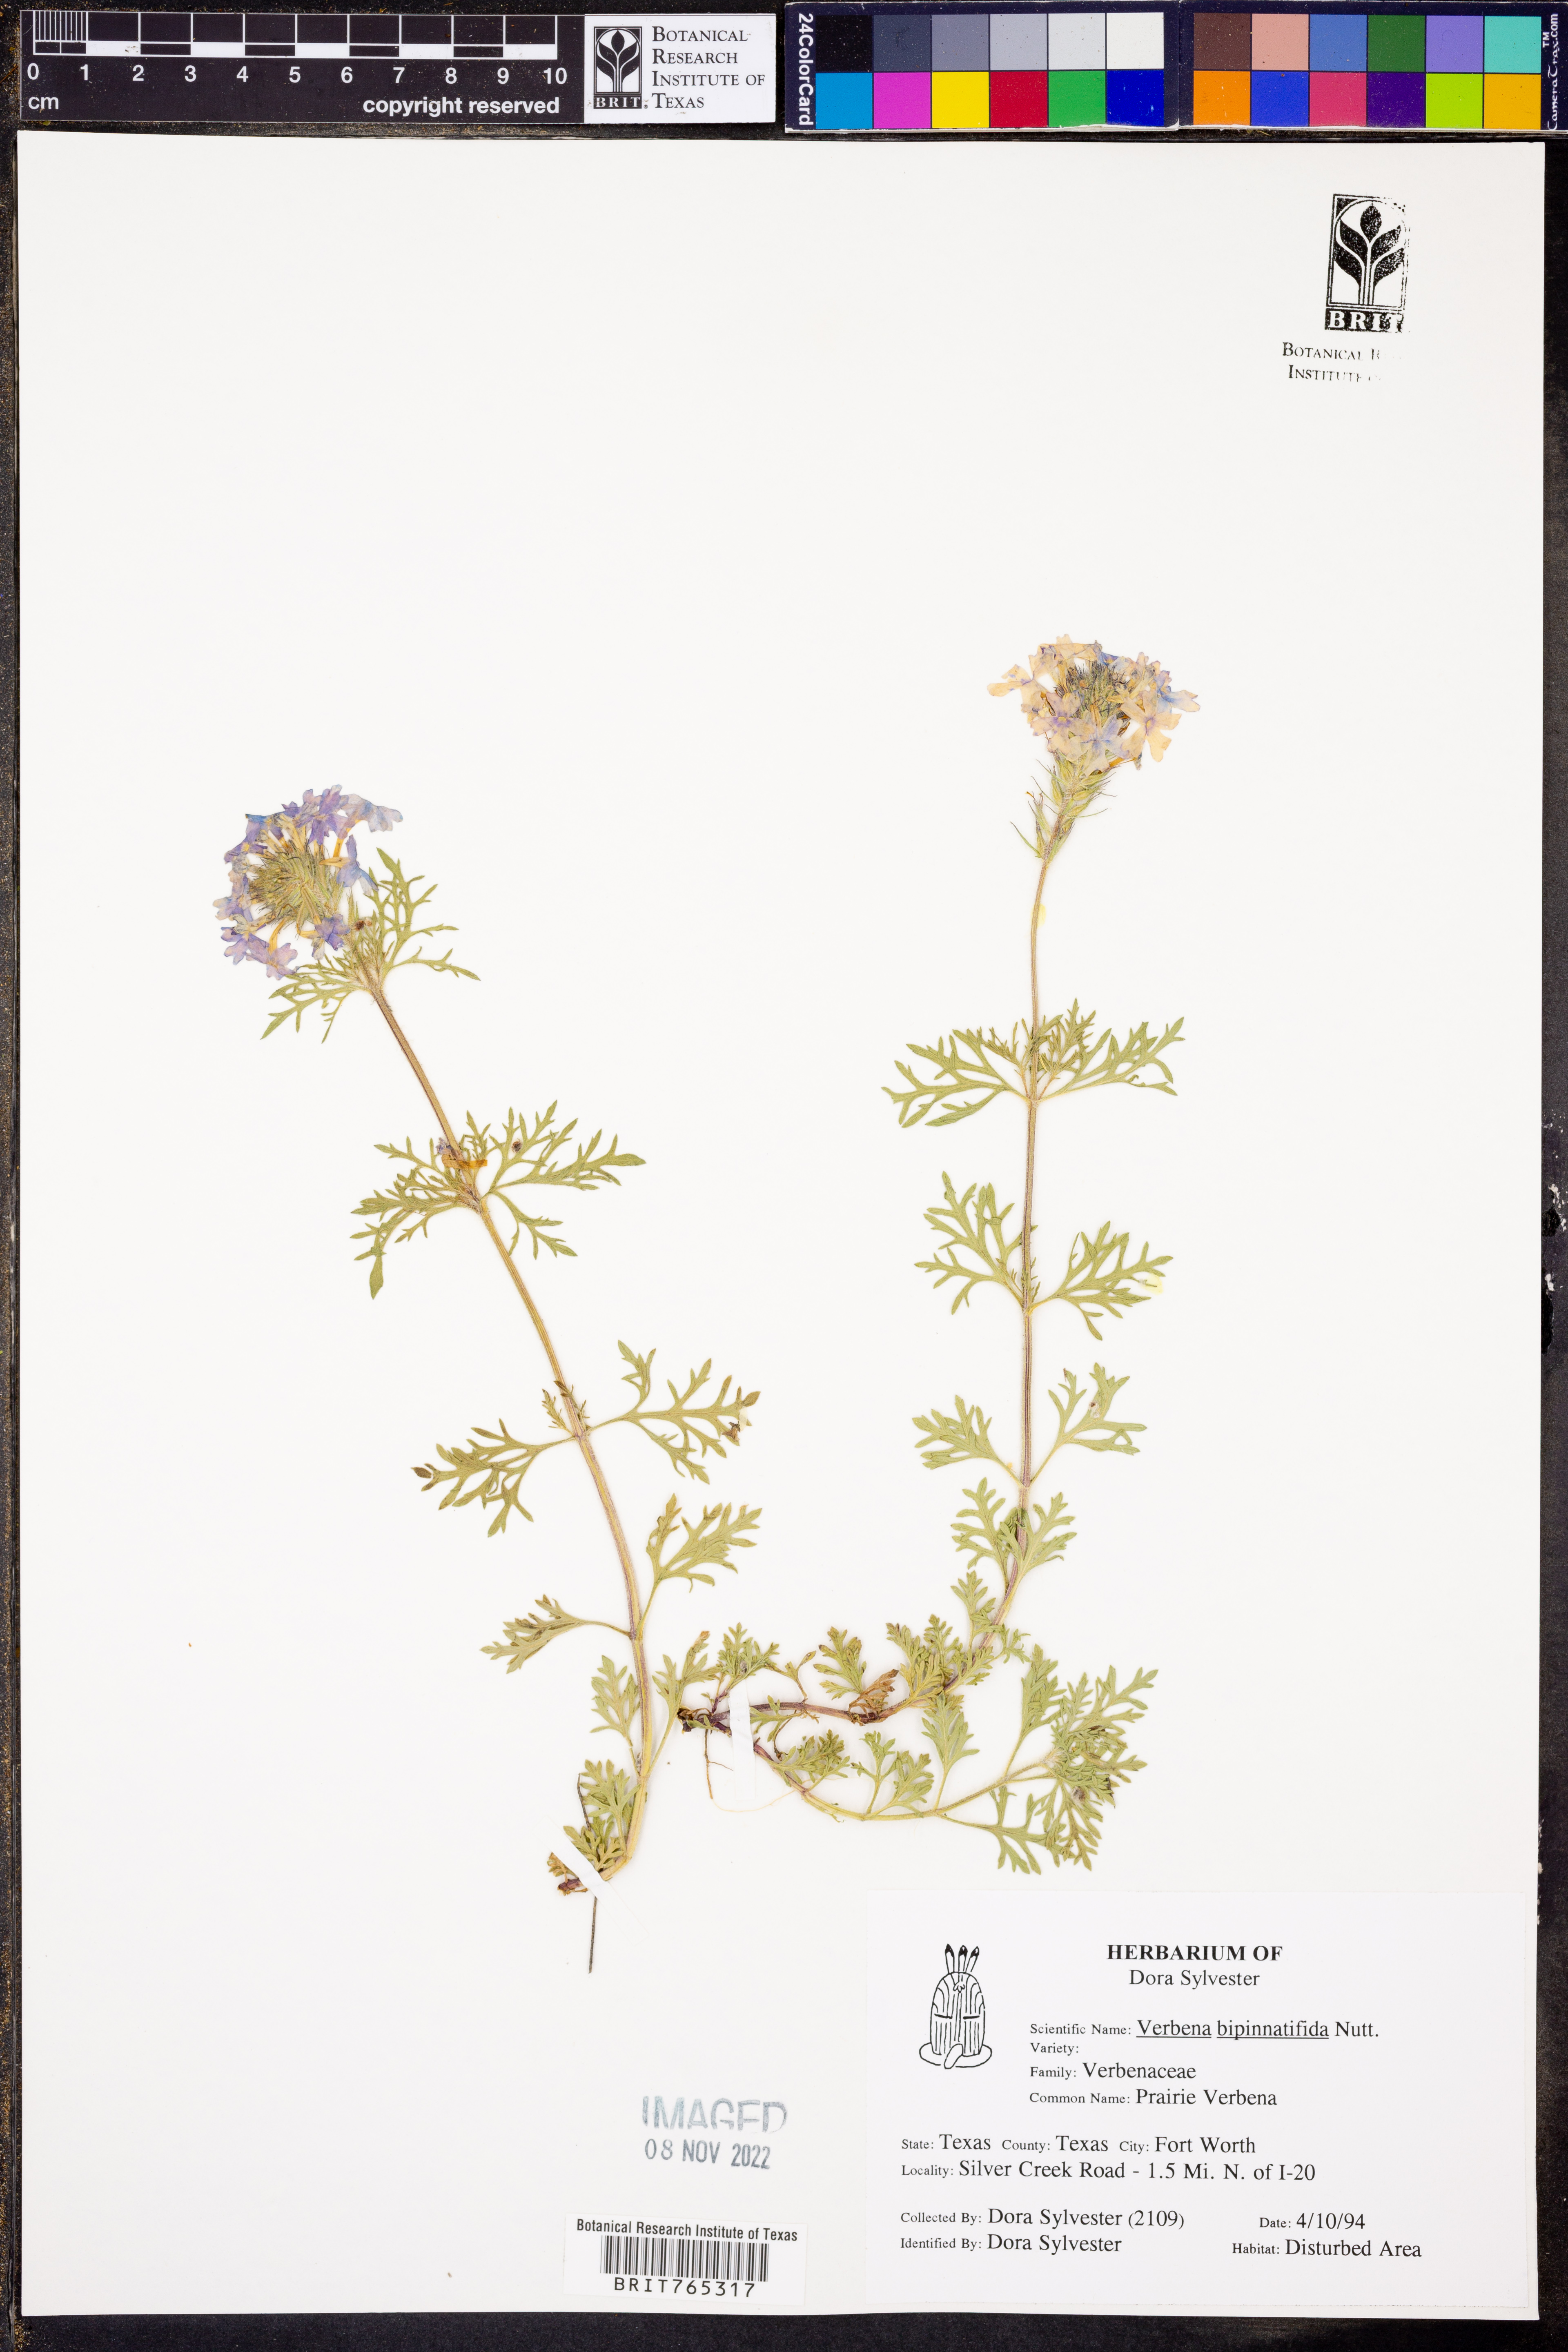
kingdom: Plantae
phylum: Tracheophyta
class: Magnoliopsida
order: Lamiales
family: Verbenaceae
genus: Verbena
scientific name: Verbena bipinnatifida
